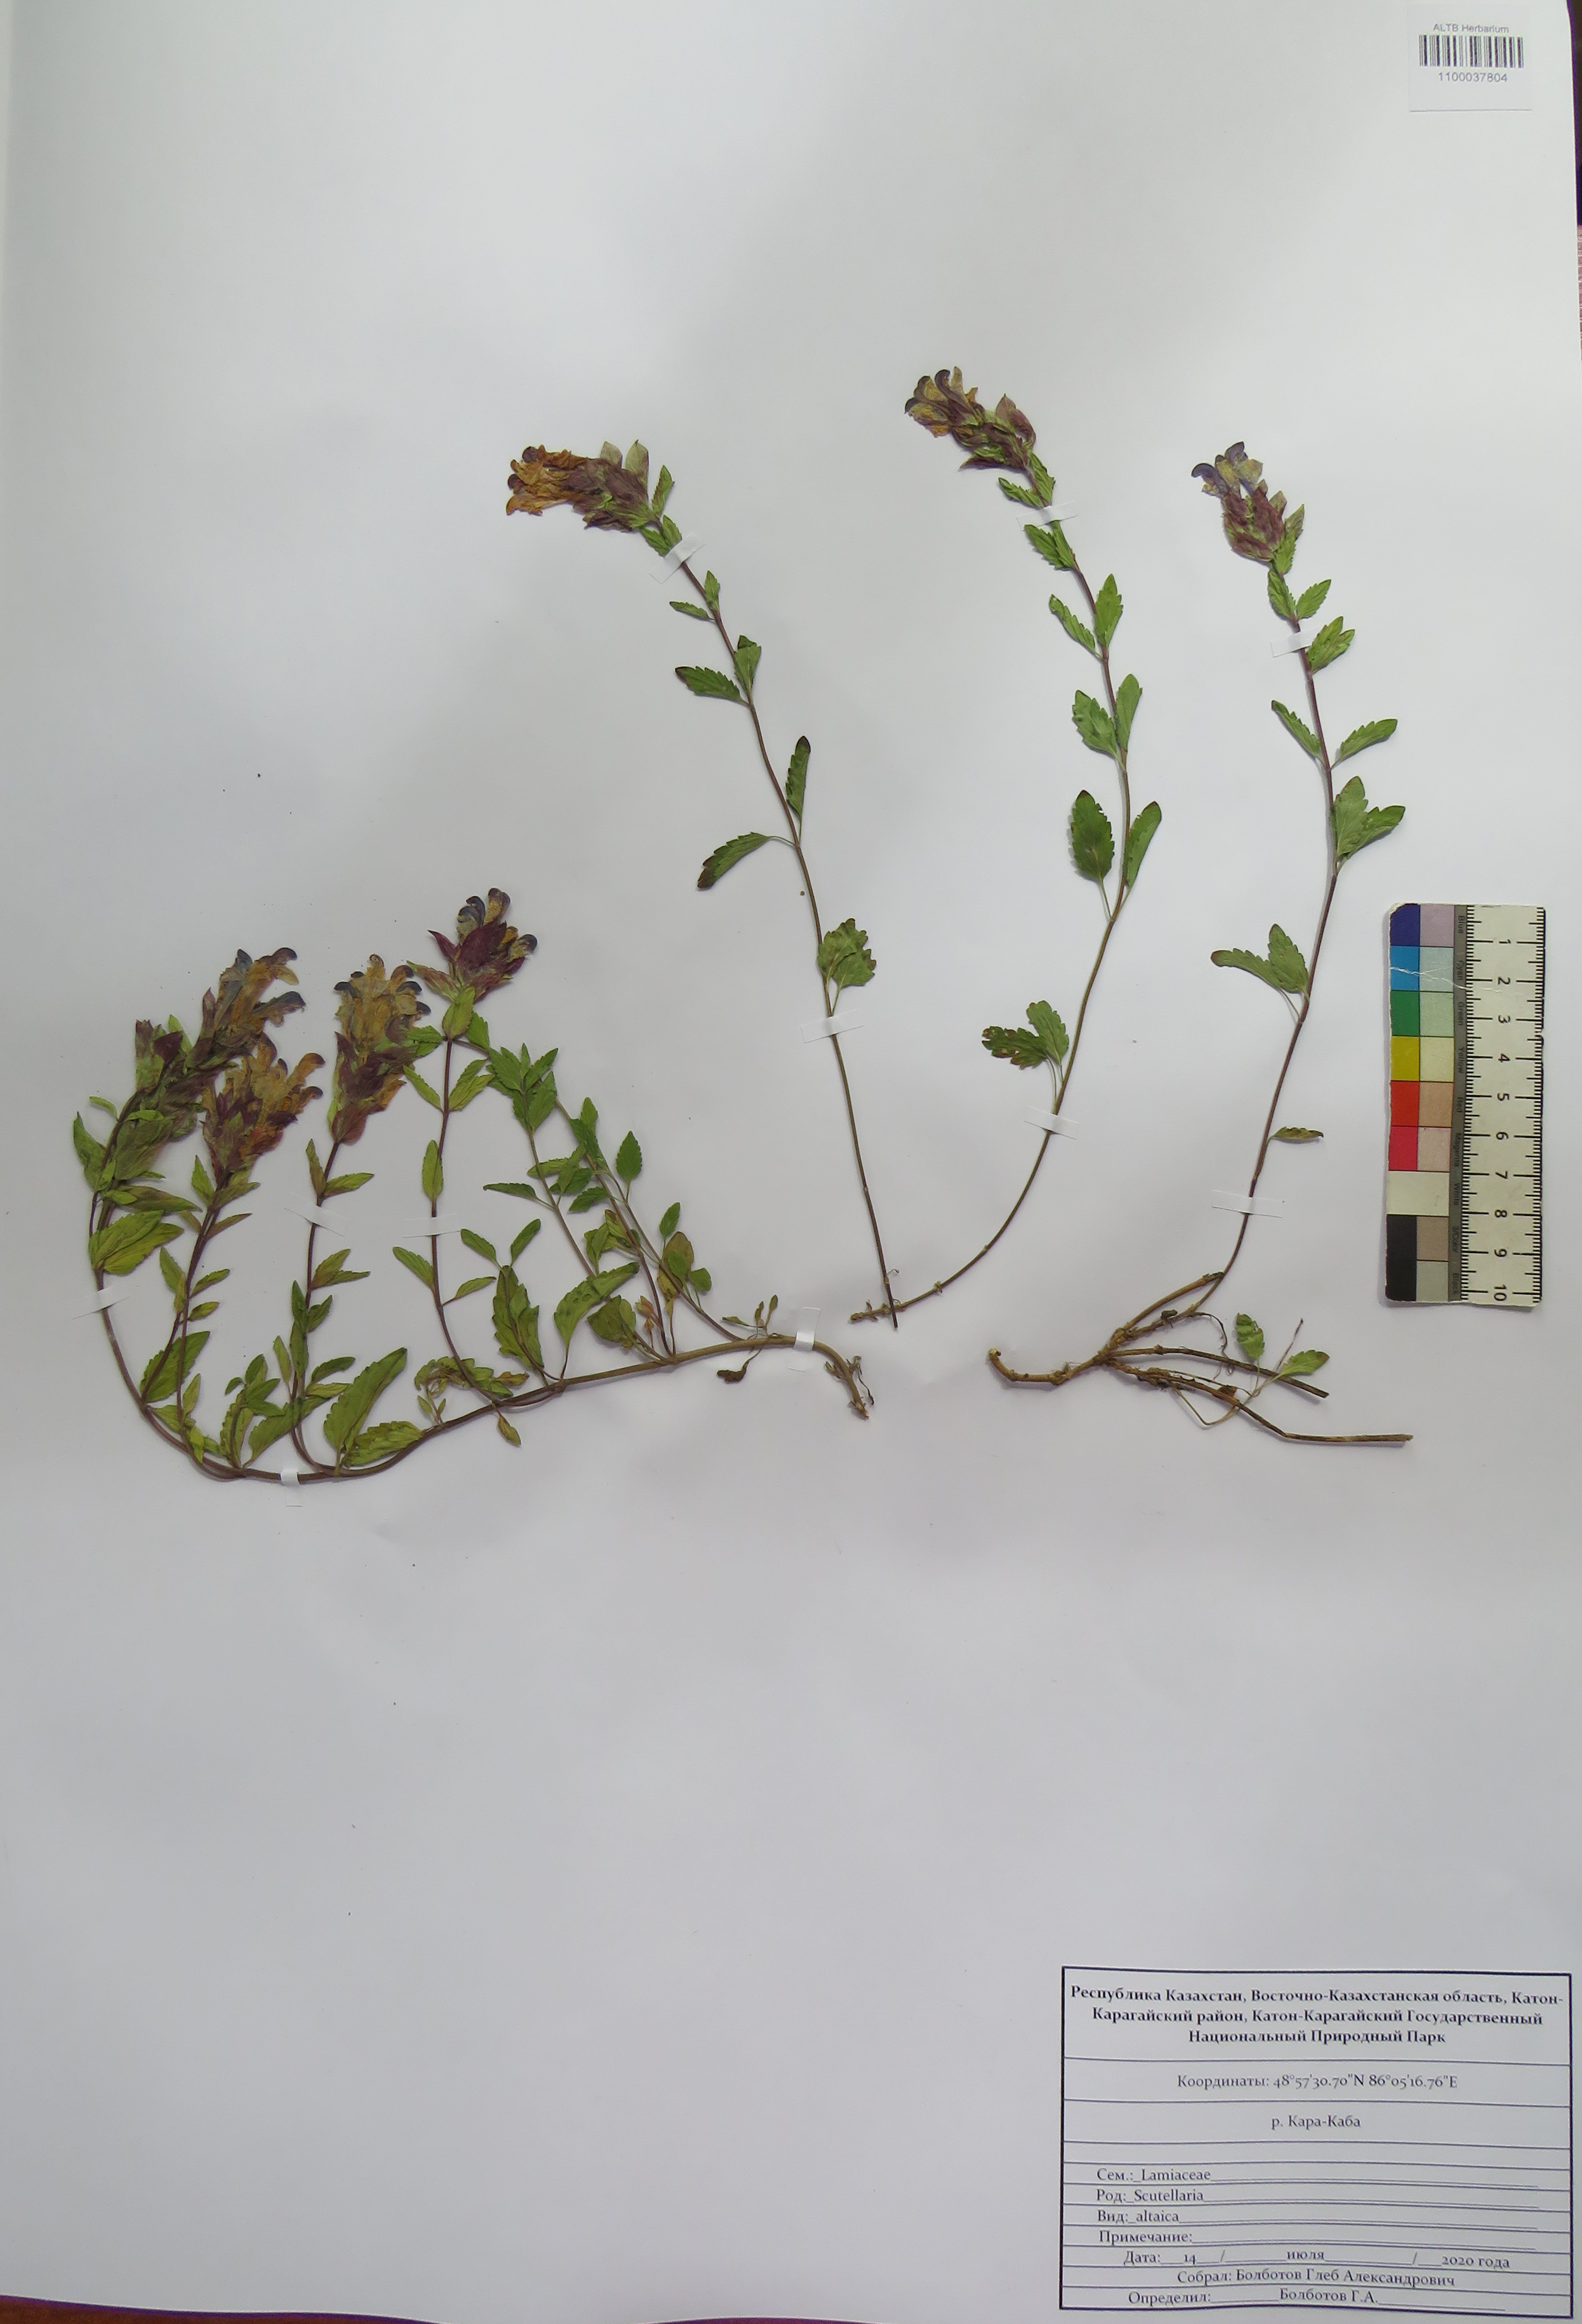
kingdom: Plantae
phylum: Tracheophyta
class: Magnoliopsida
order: Lamiales
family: Lamiaceae
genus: Scutellaria
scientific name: Scutellaria altaica
